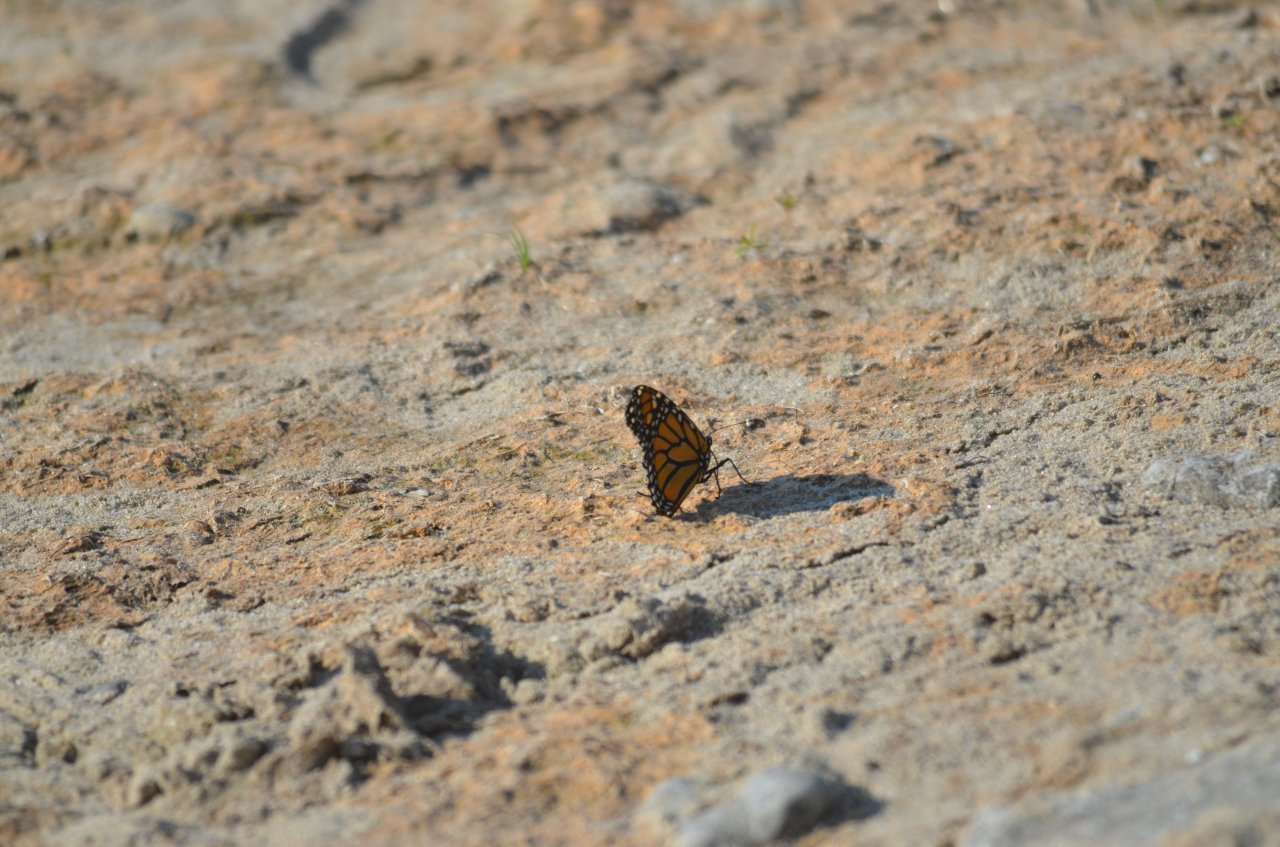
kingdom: Animalia
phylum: Arthropoda
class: Insecta
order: Lepidoptera
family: Nymphalidae
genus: Danaus
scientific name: Danaus plexippus
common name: Monarch
